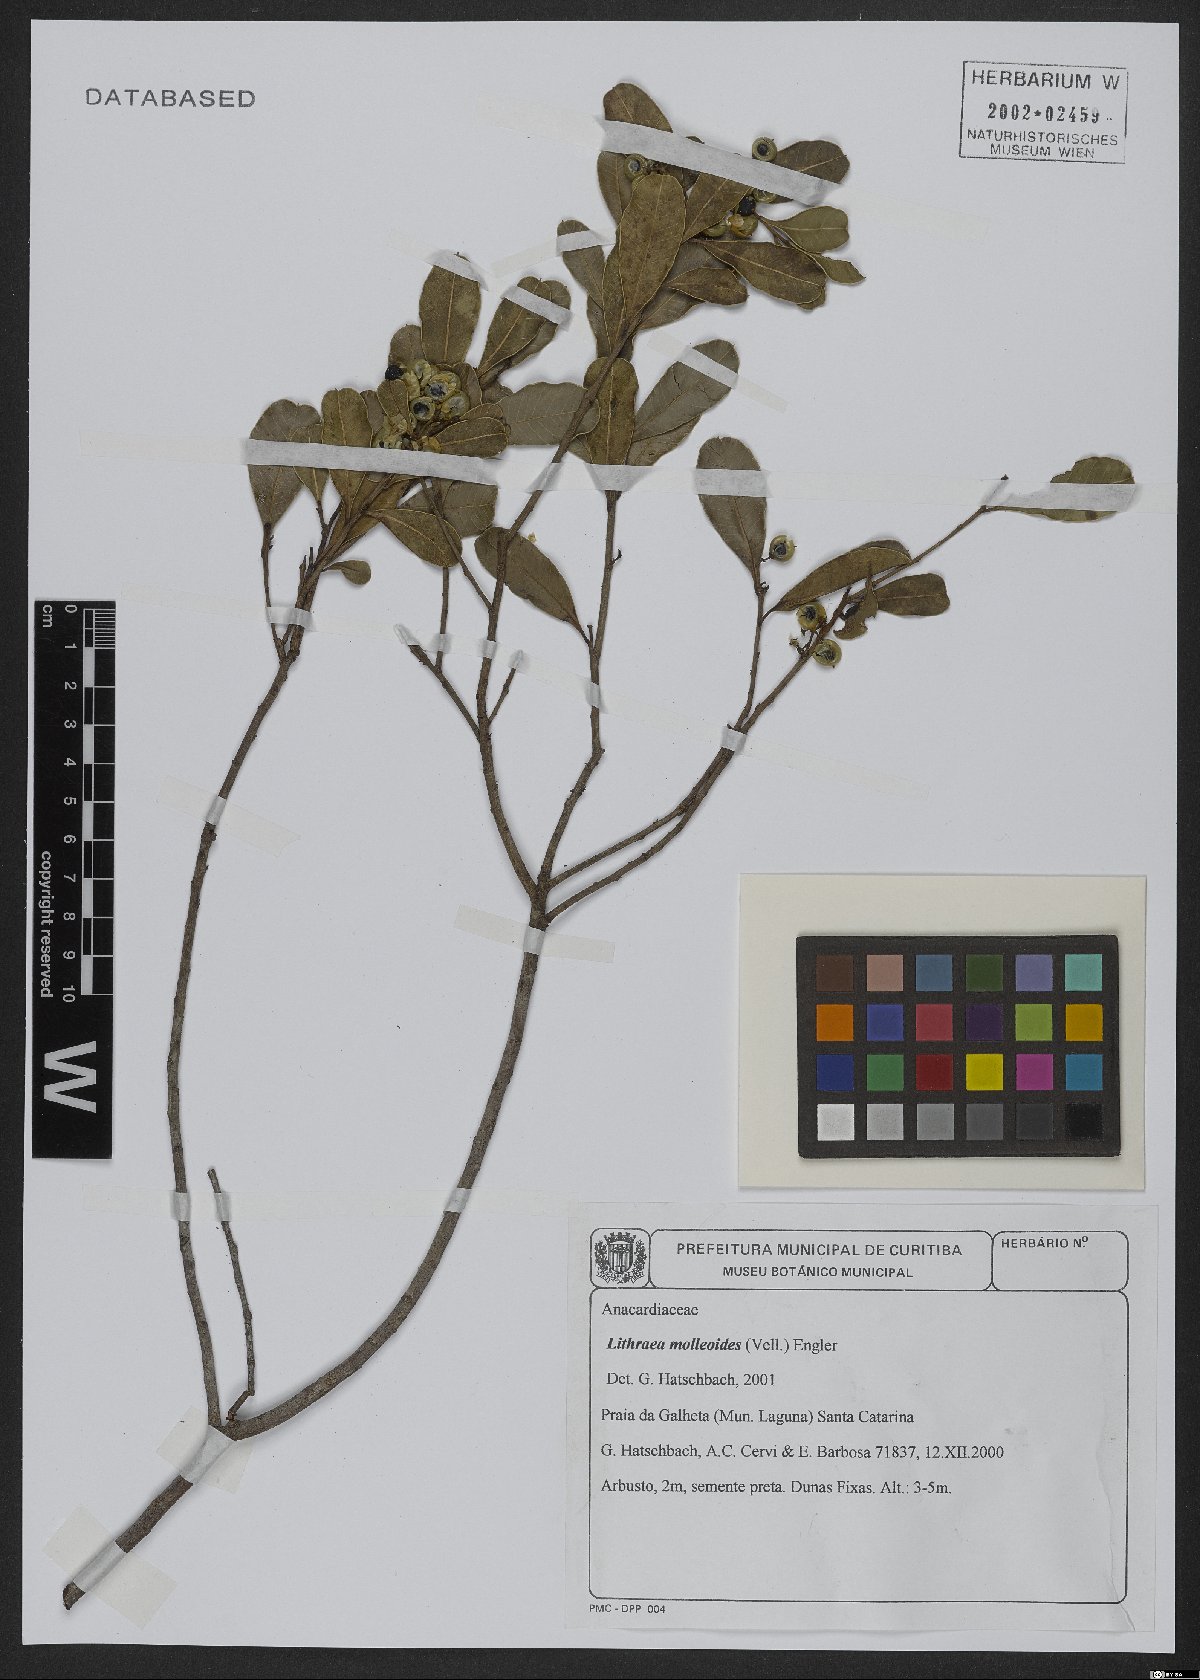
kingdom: Plantae
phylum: Tracheophyta
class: Magnoliopsida
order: Sapindales
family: Anacardiaceae
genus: Lithraea
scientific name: Lithraea molleoides
